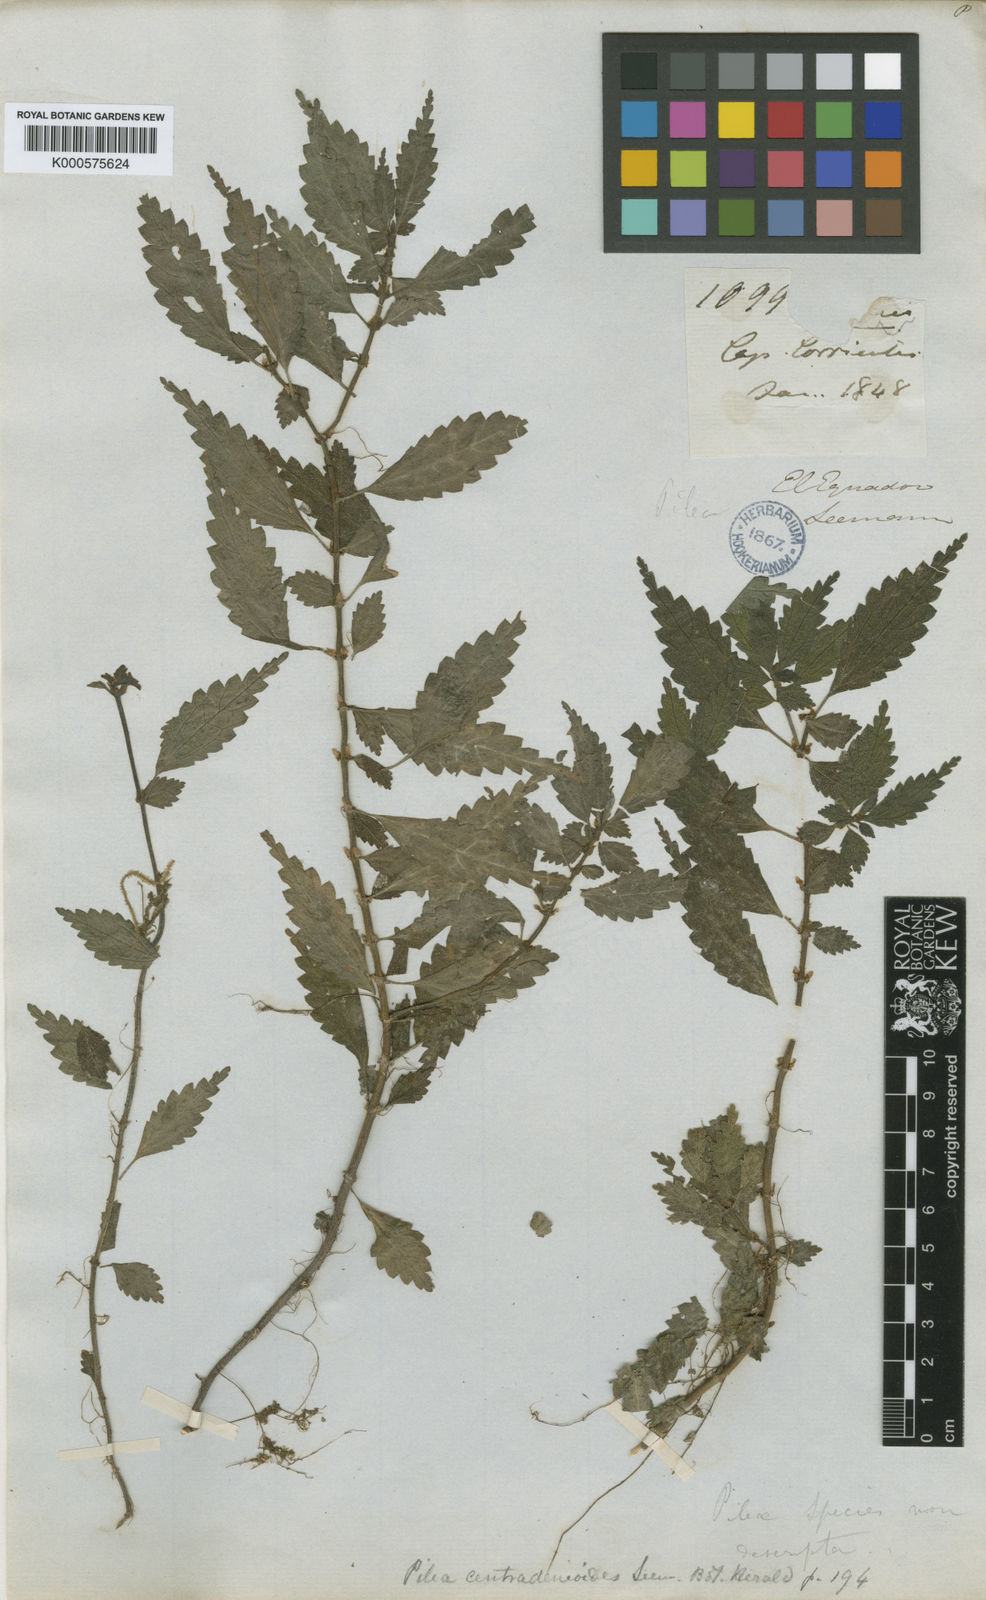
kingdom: Plantae
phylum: Tracheophyta
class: Magnoliopsida
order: Rosales
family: Urticaceae
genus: Pilea
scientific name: Pilea centradenioides
